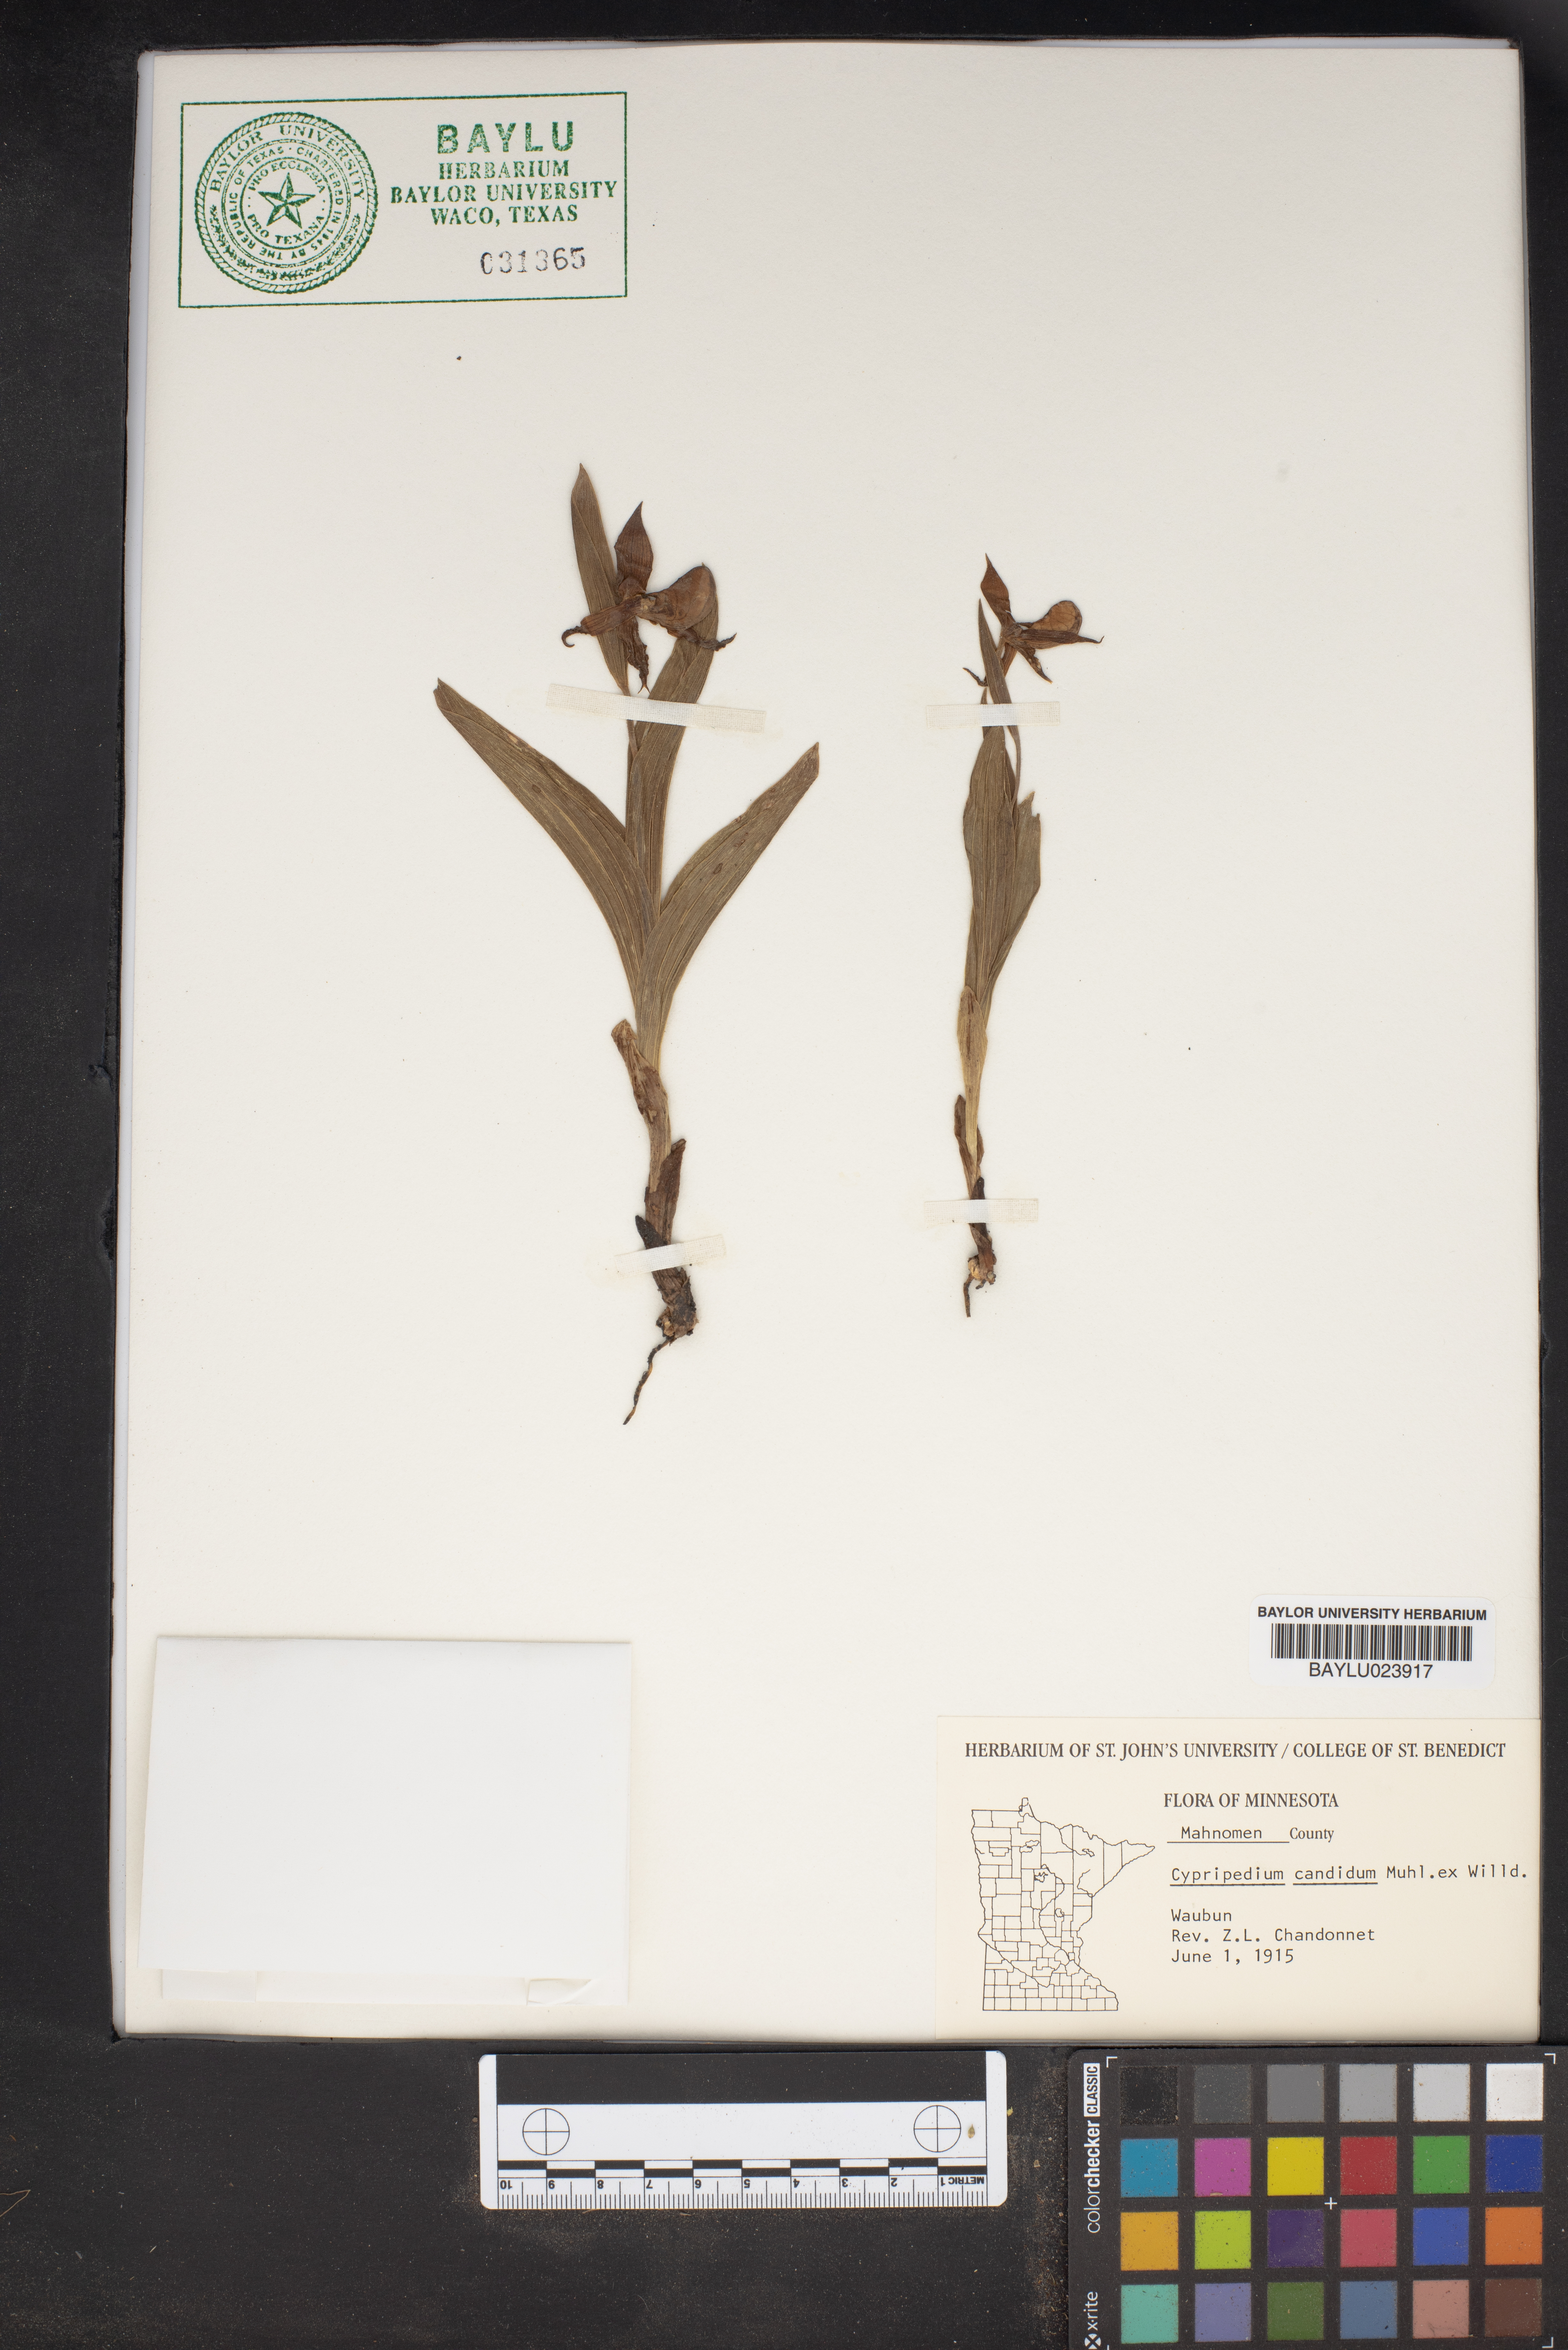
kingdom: Plantae
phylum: Tracheophyta
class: Liliopsida
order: Asparagales
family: Orchidaceae
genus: Cypripedium
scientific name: Cypripedium candidum
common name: White lady's-slipper
